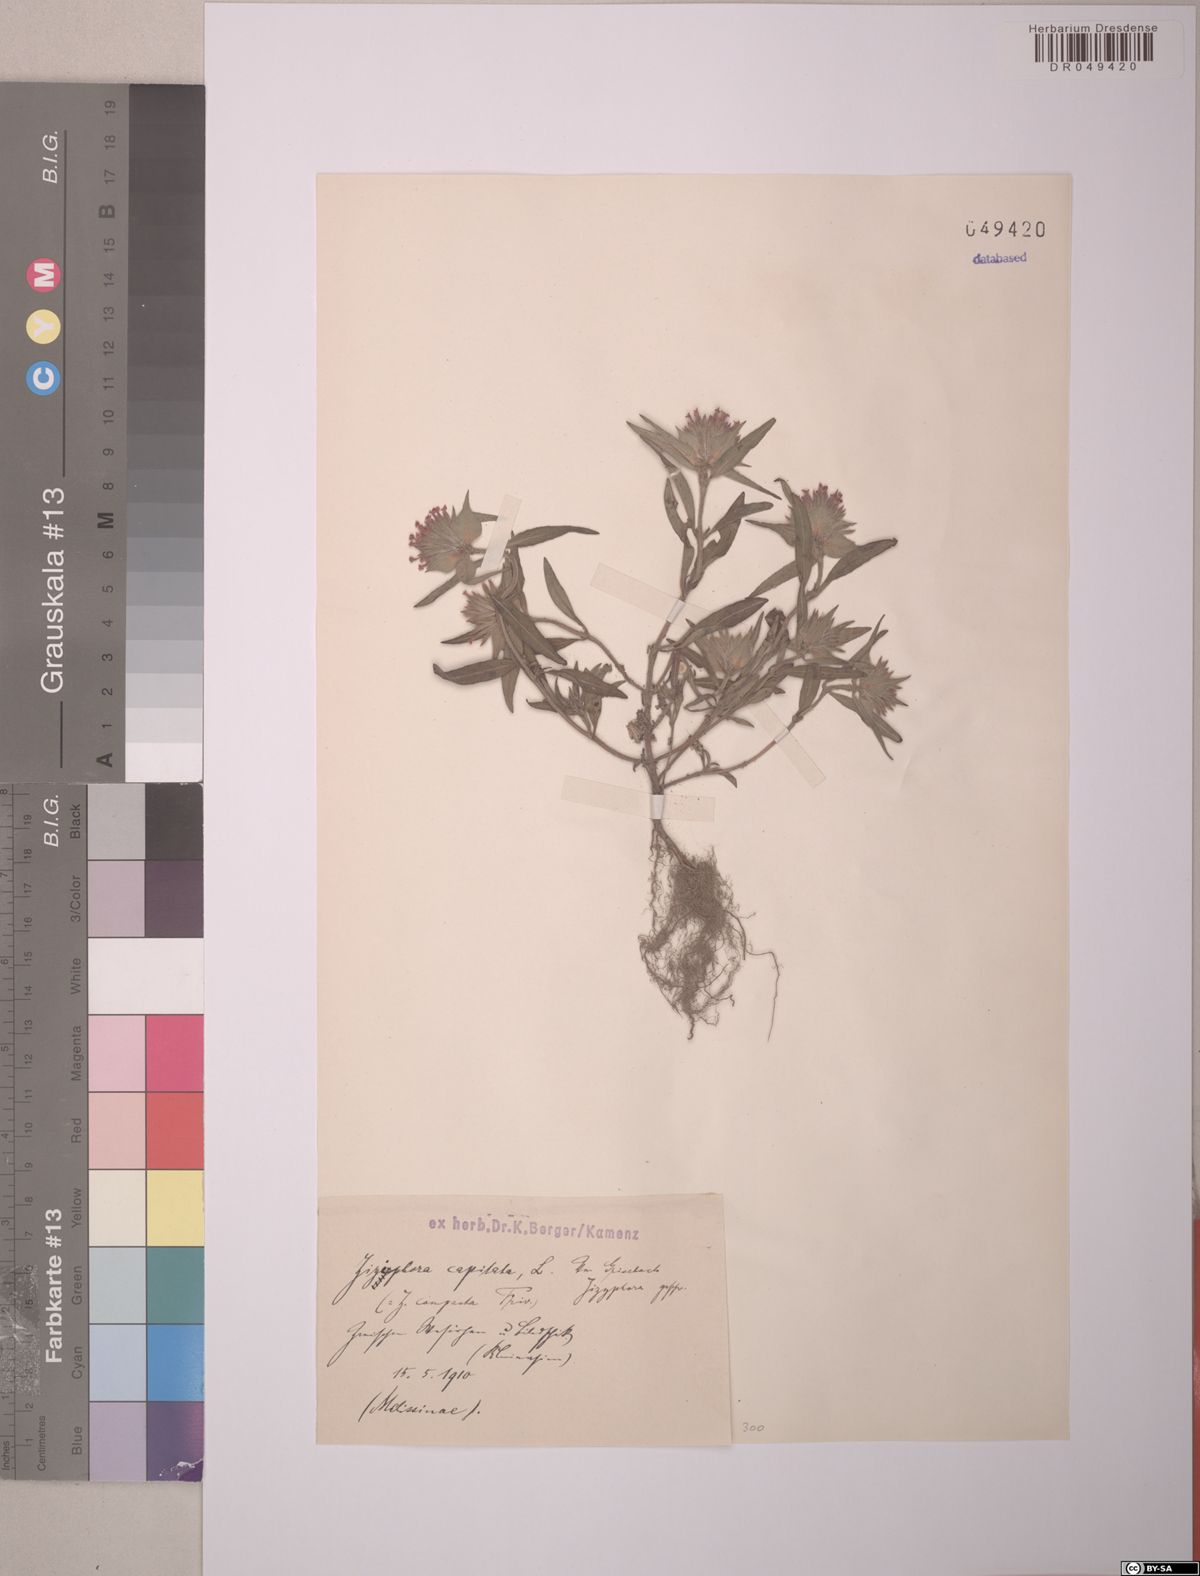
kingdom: Plantae
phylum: Tracheophyta
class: Magnoliopsida
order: Lamiales
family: Lamiaceae
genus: Ziziphora
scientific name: Ziziphora capitata
